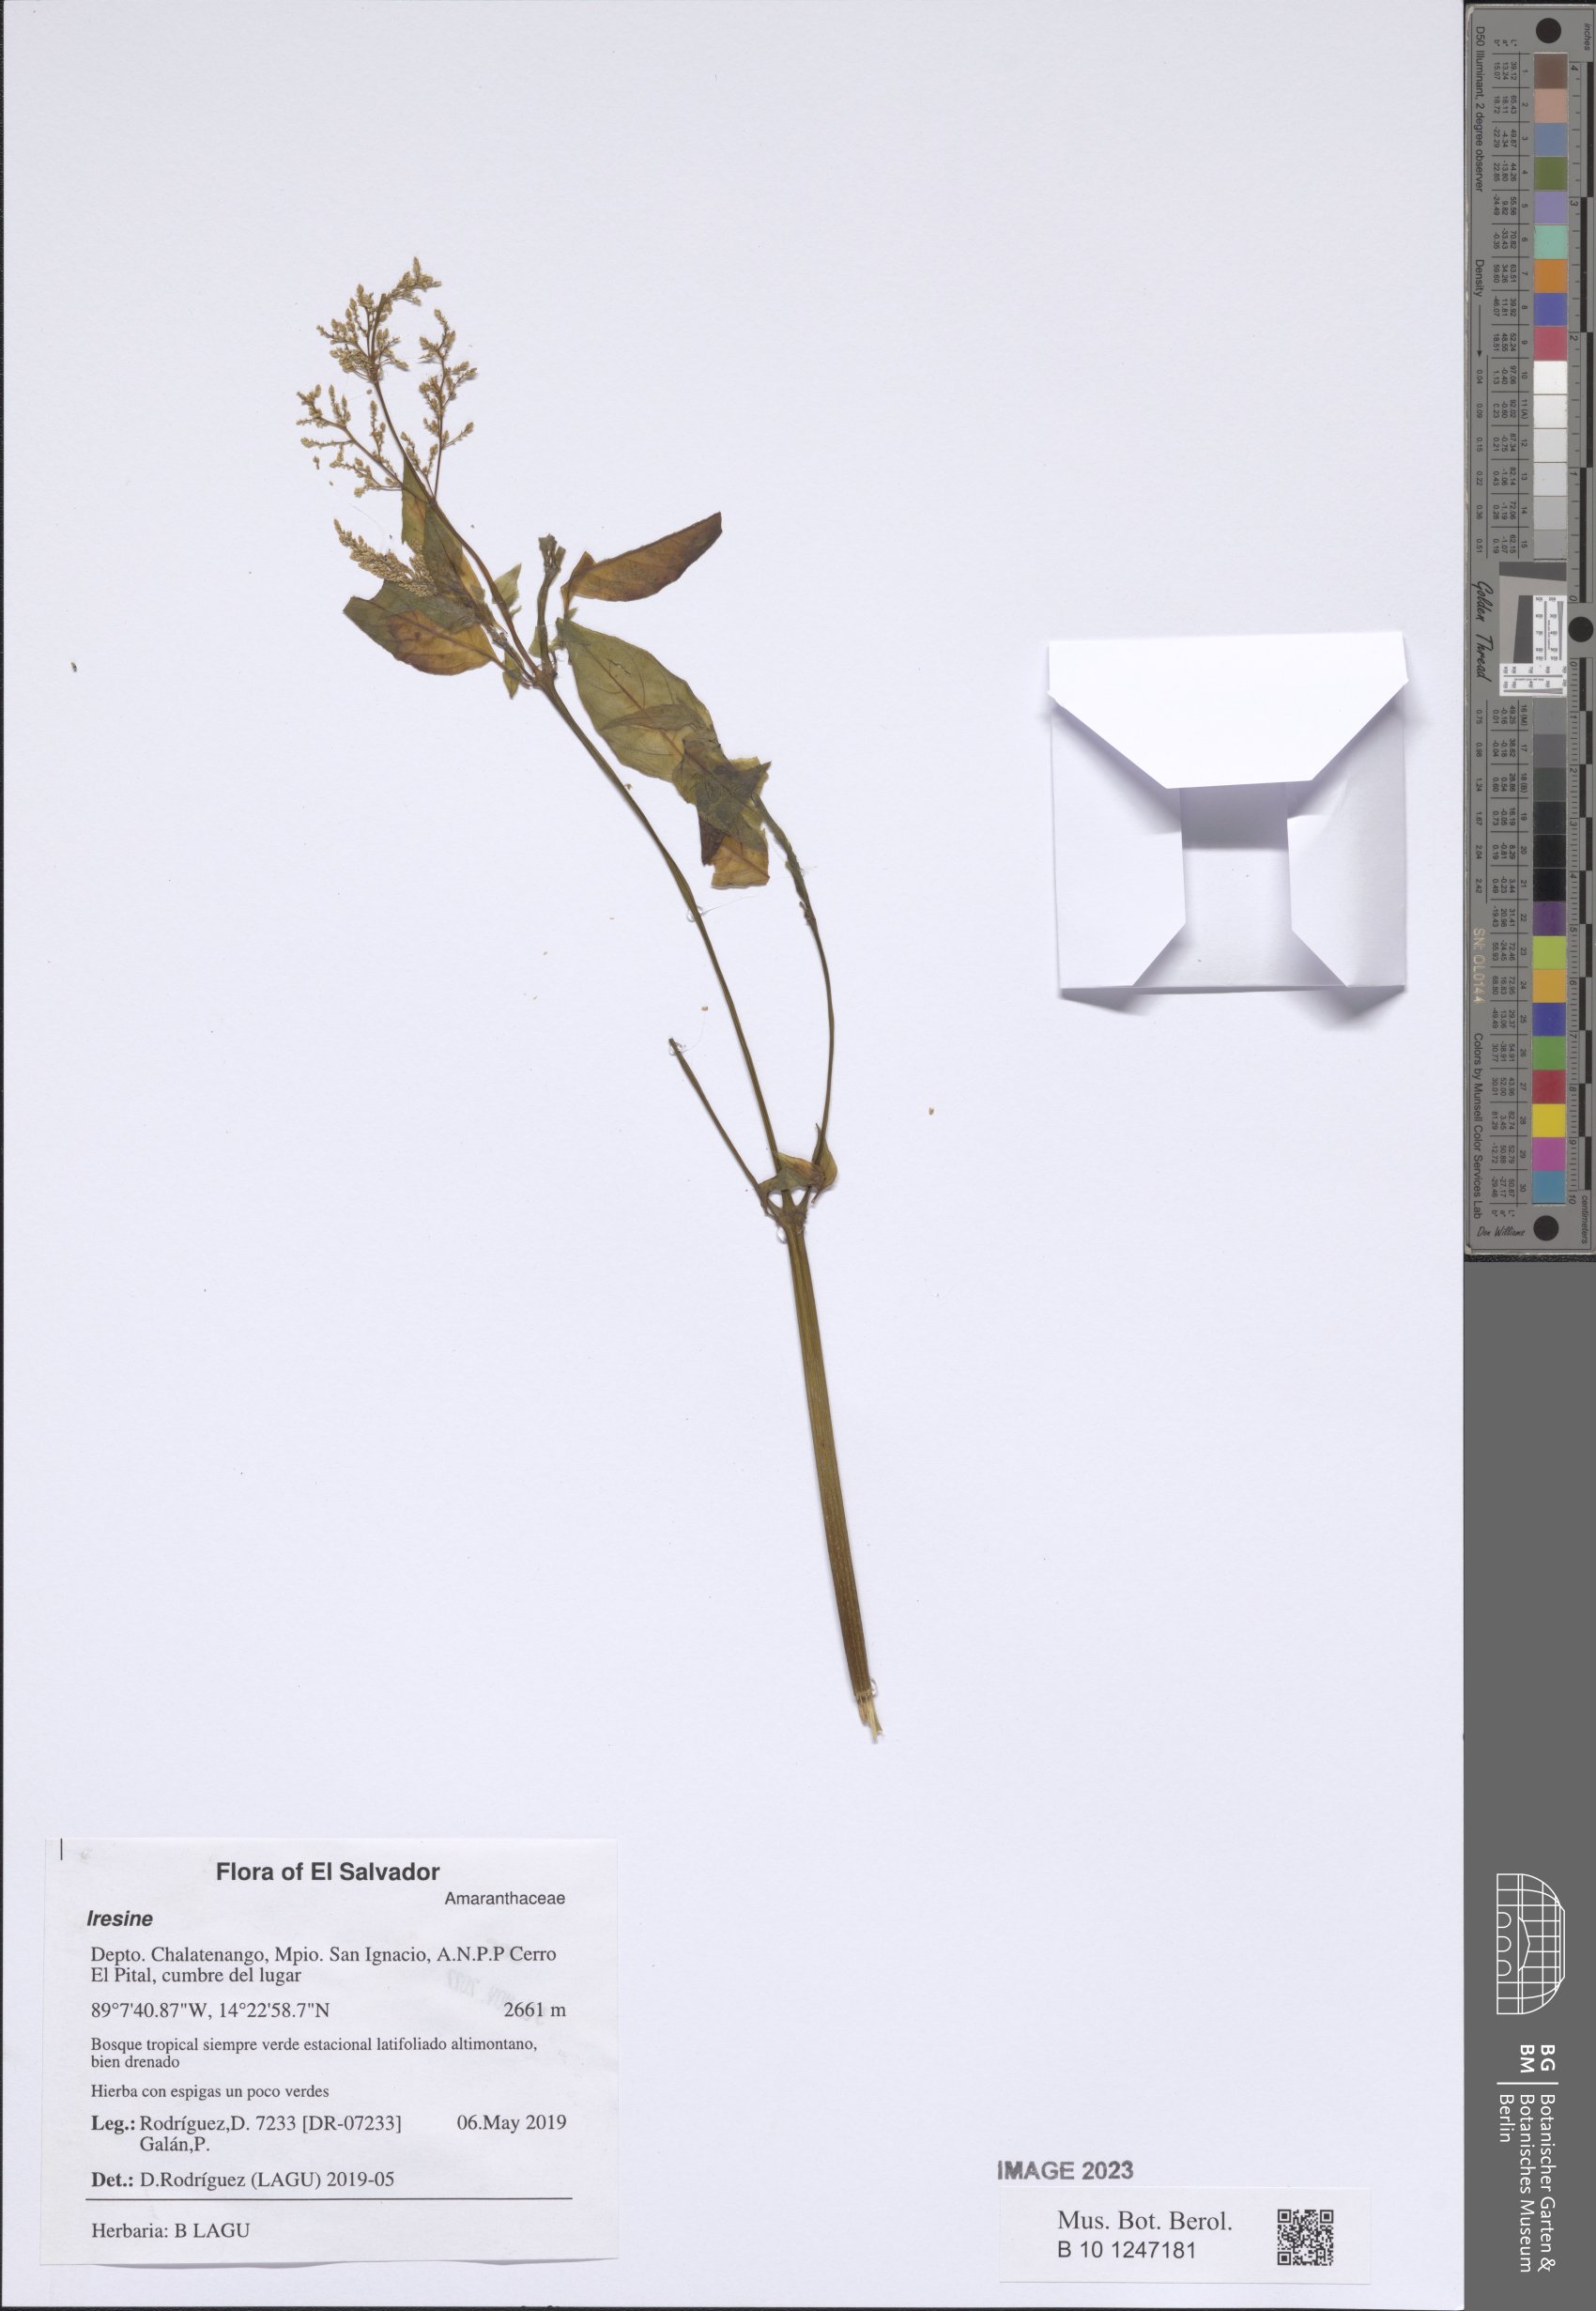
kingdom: Plantae
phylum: Tracheophyta
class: Magnoliopsida
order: Caryophyllales
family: Amaranthaceae
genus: Iresine
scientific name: Iresine
